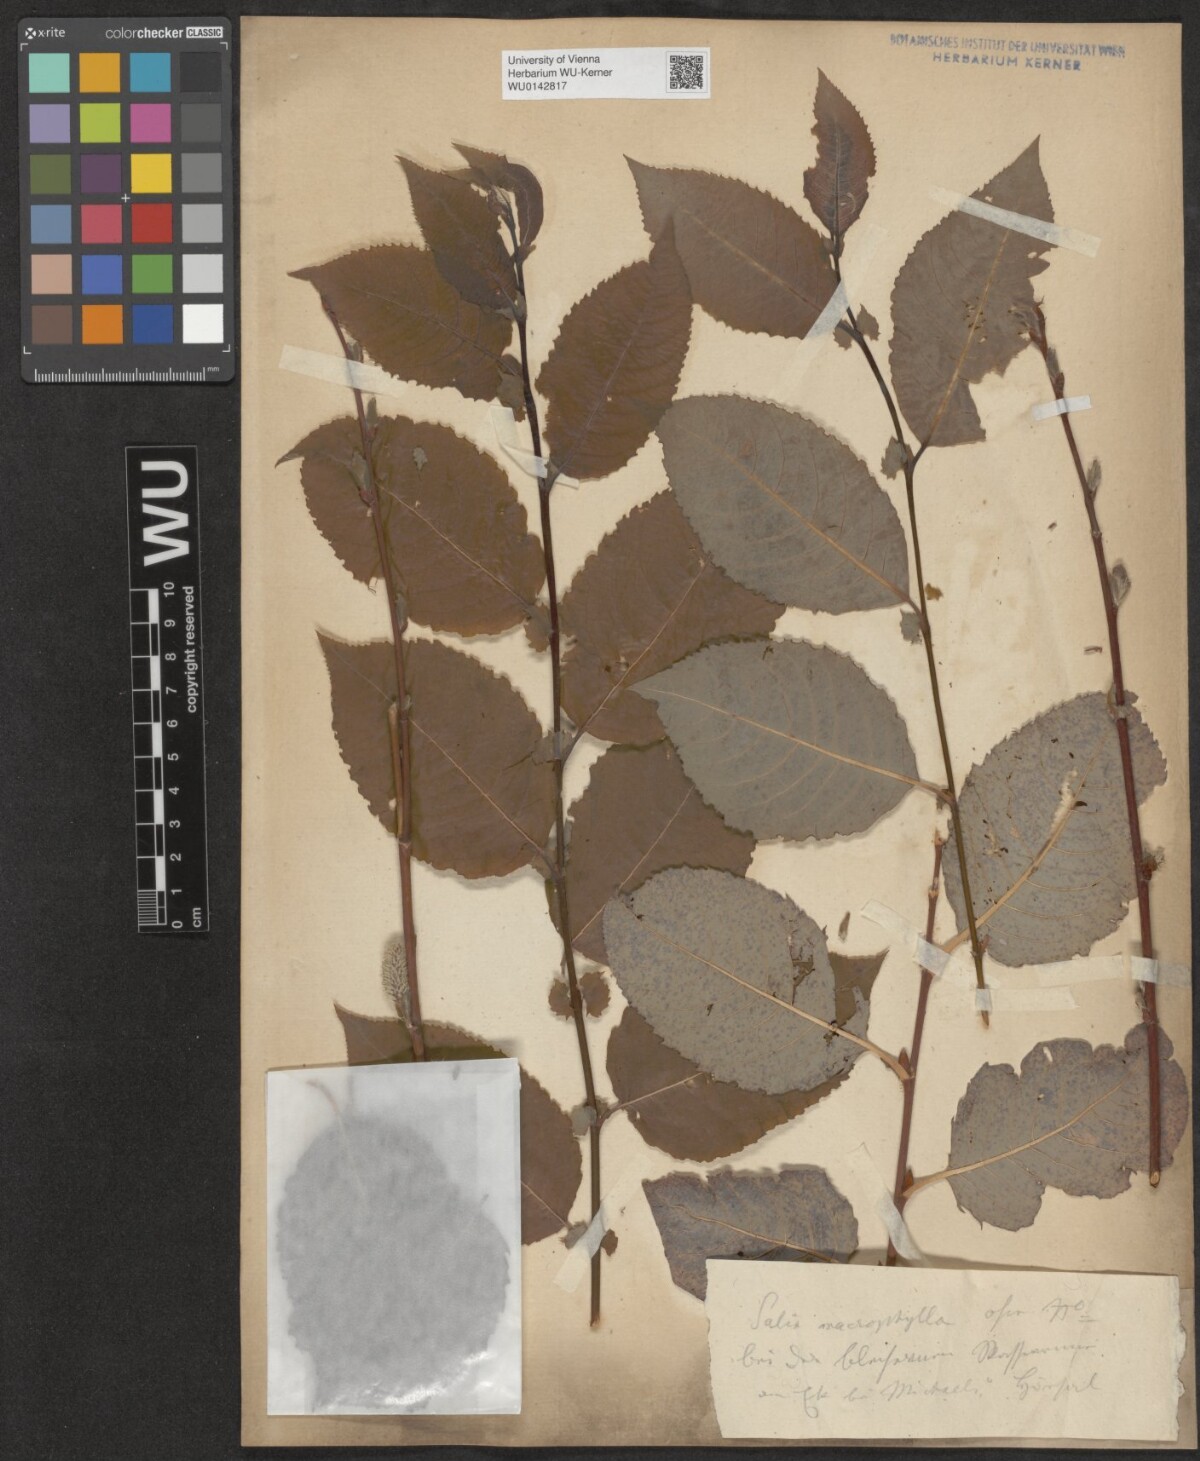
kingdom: Plantae
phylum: Tracheophyta
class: Magnoliopsida
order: Malpighiales
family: Salicaceae
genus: Salix
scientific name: Salix macrophylla
